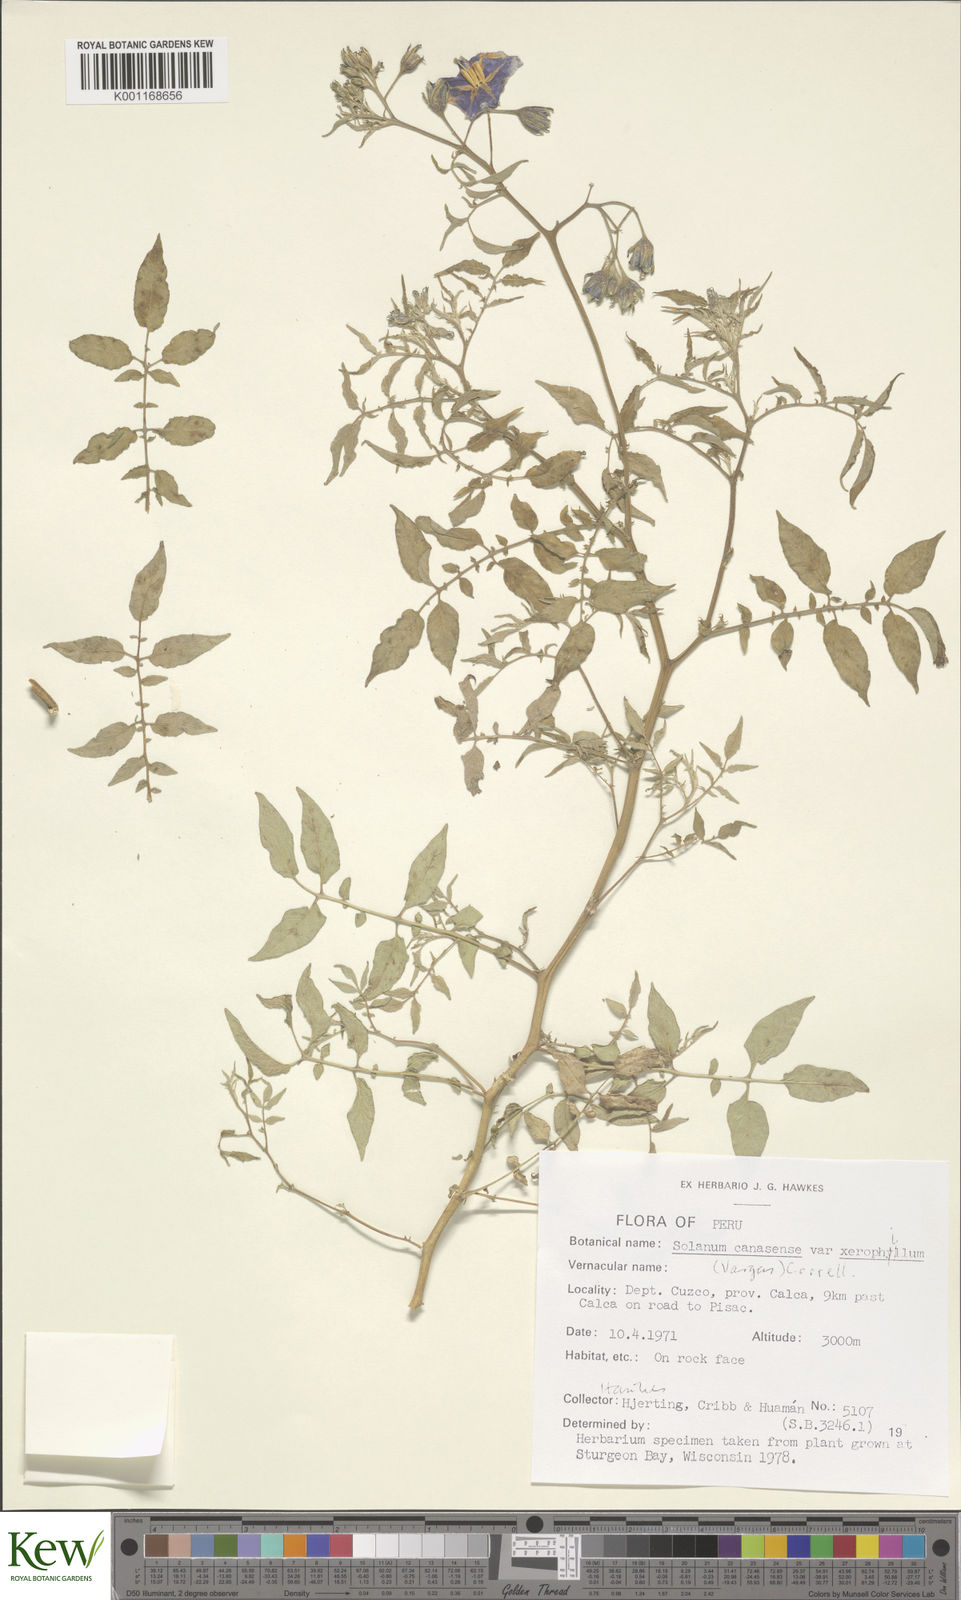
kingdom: Plantae
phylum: Tracheophyta
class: Magnoliopsida
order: Solanales
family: Solanaceae
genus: Solanum
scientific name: Solanum candolleanum
